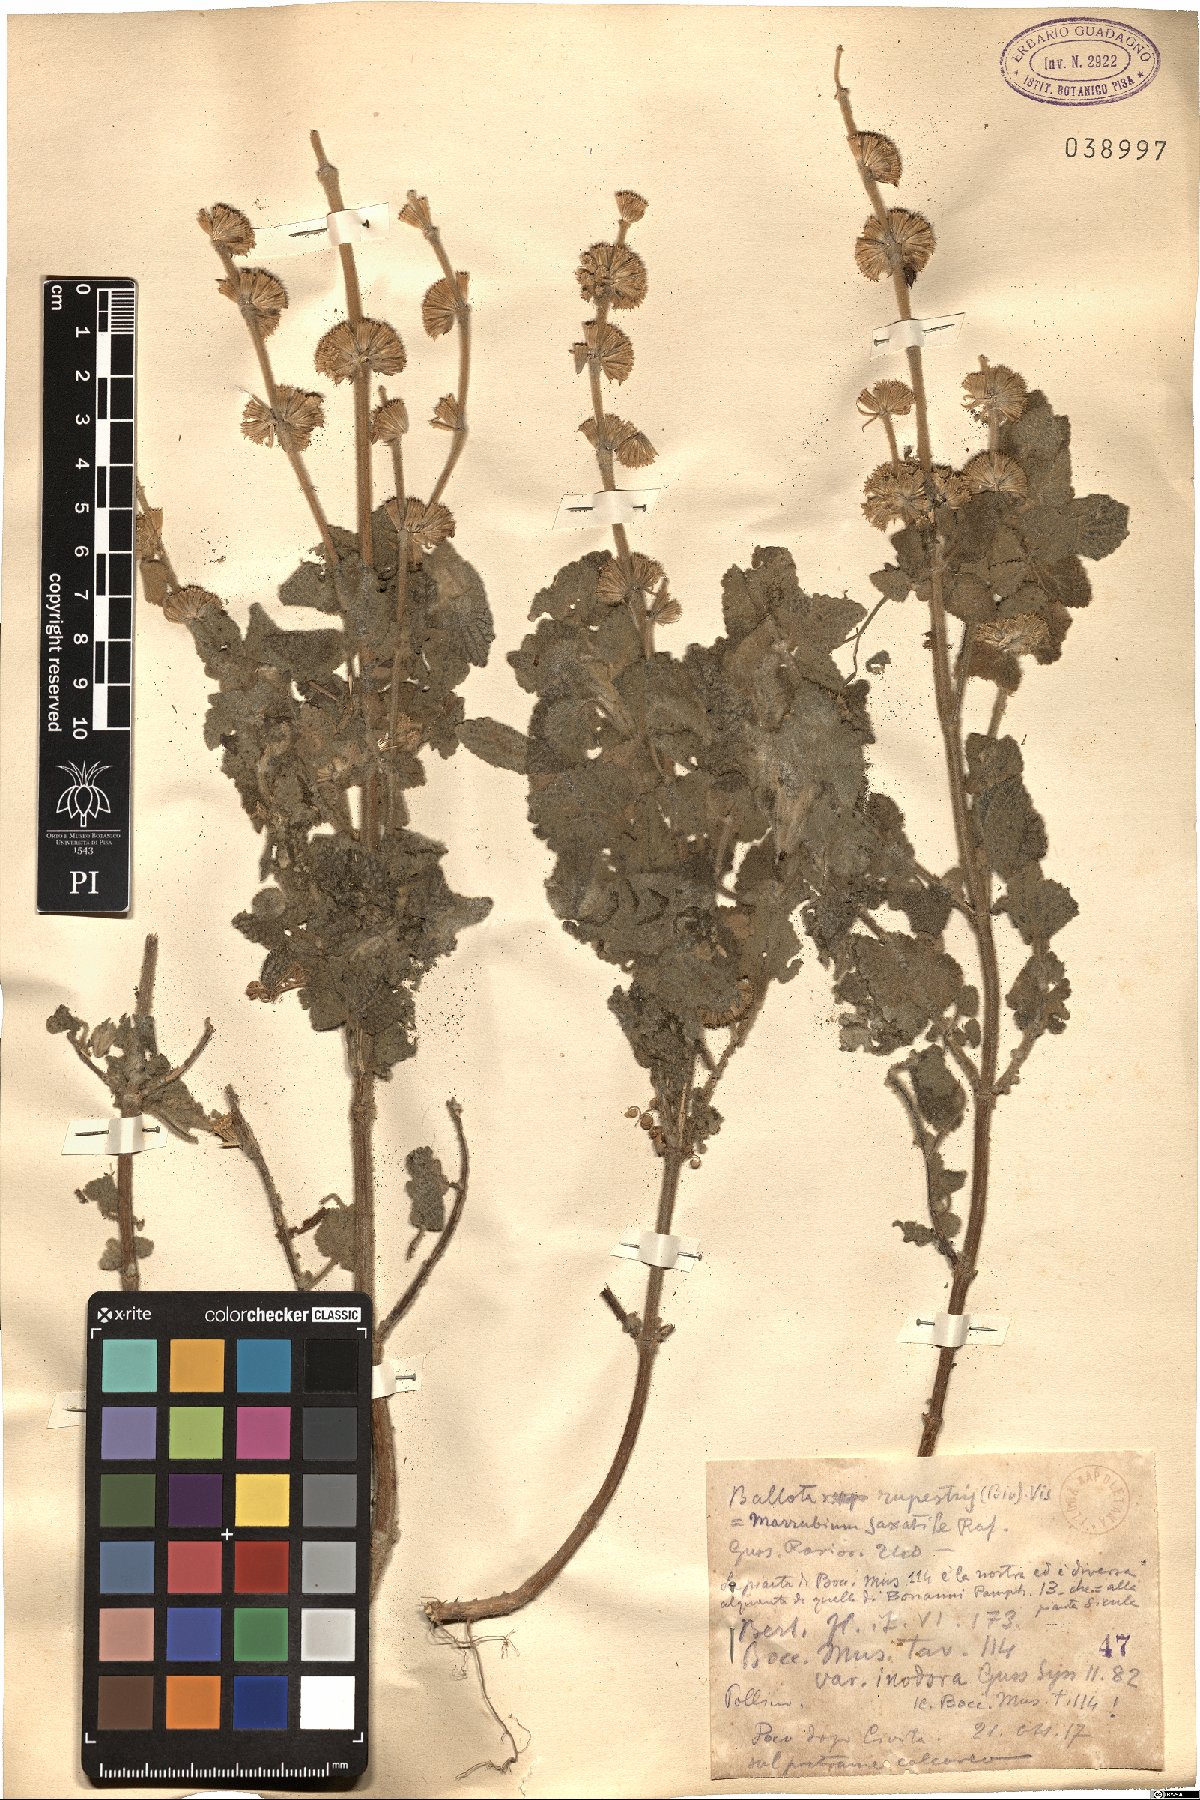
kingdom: Plantae
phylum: Tracheophyta
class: Magnoliopsida
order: Lamiales
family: Lamiaceae
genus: Pseudodictamnus
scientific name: Pseudodictamnus hispanicus
